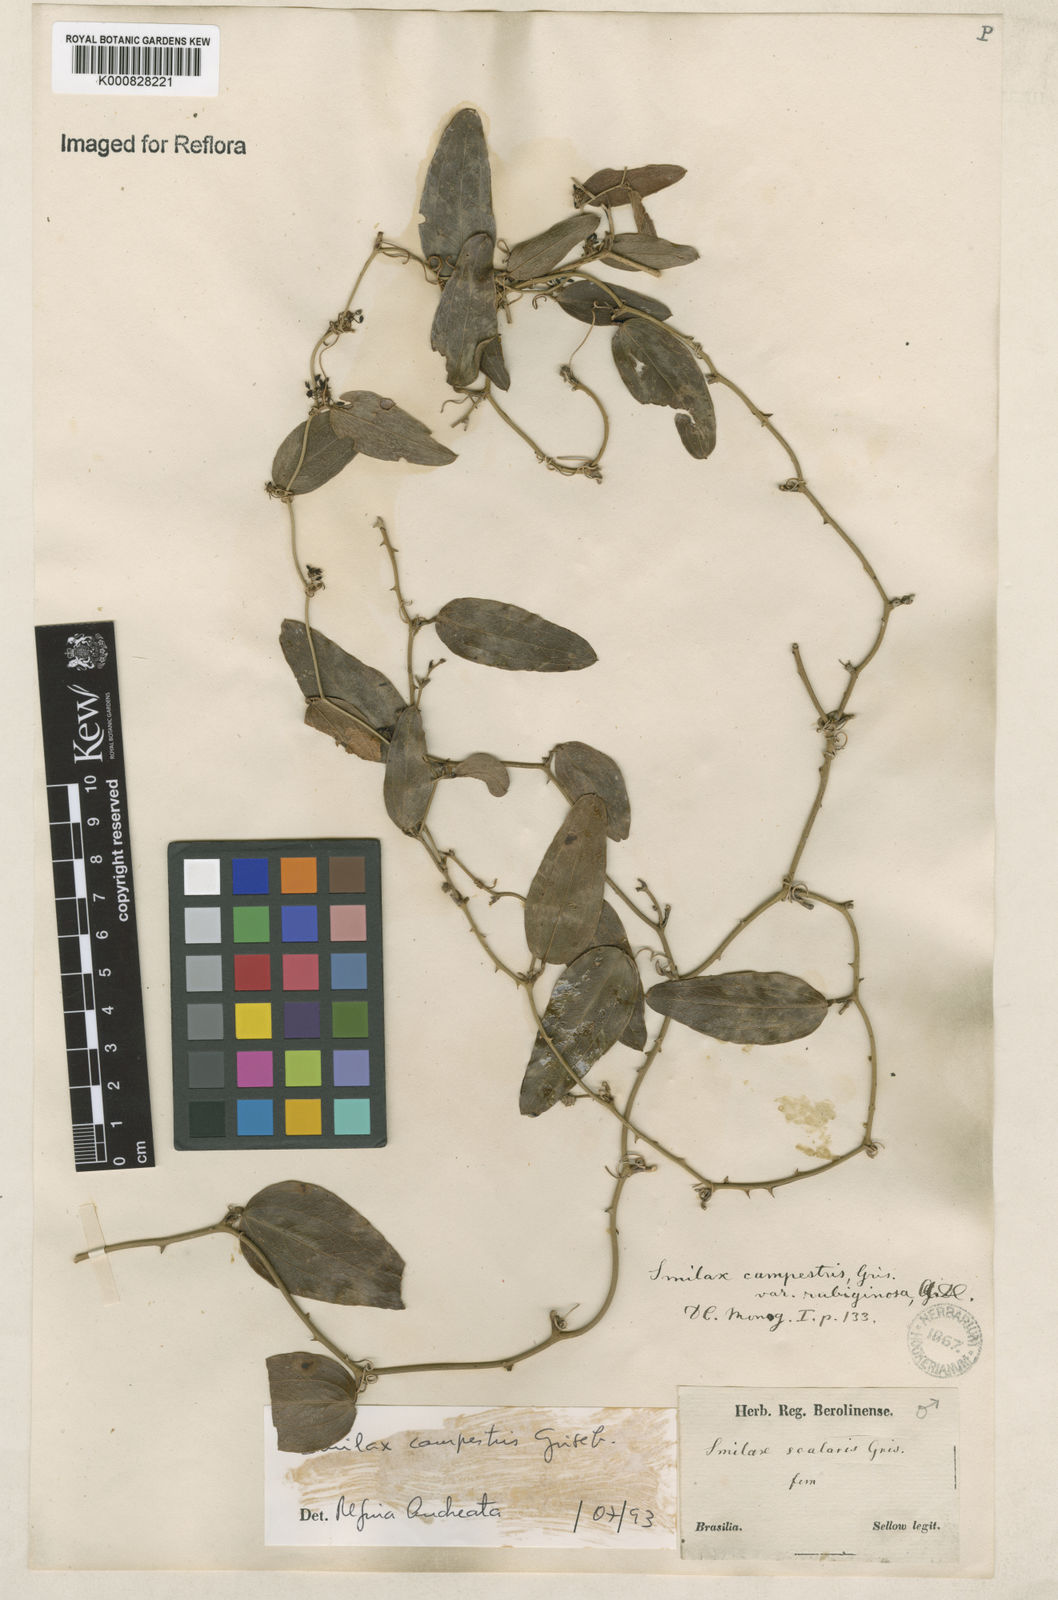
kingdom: Plantae
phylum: Tracheophyta
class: Liliopsida
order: Liliales
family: Smilacaceae
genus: Smilax
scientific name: Smilax campestris
